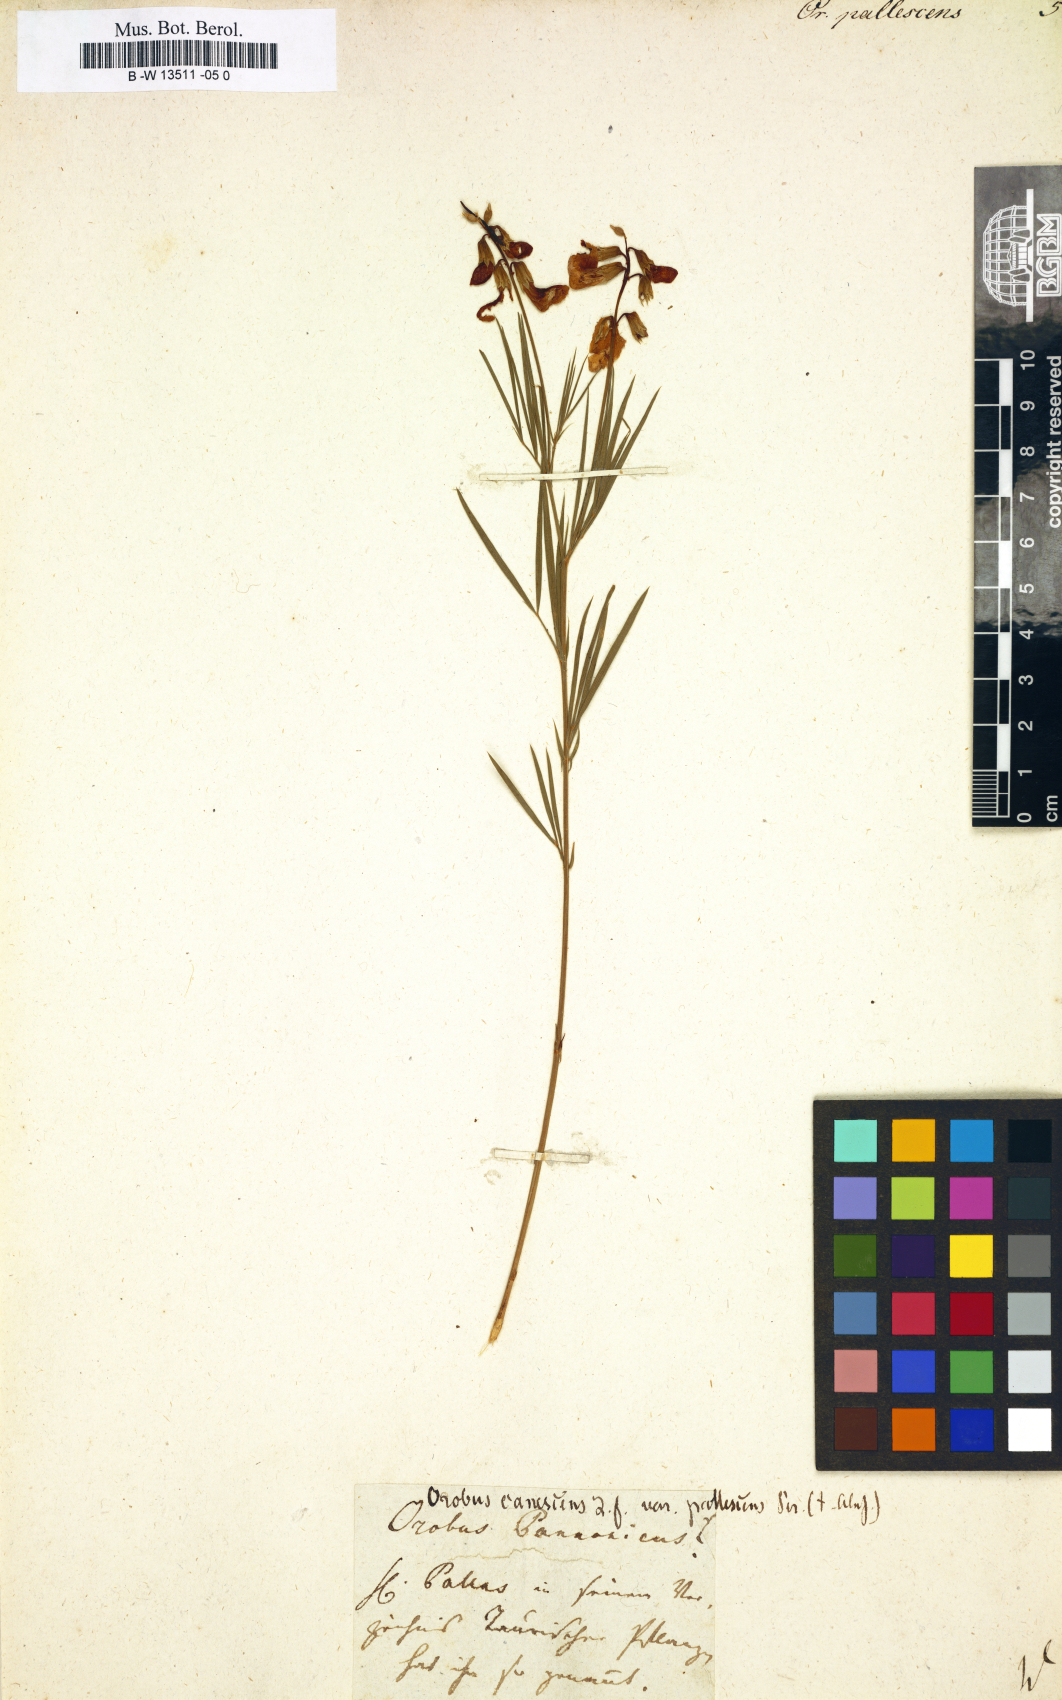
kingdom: Plantae
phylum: Tracheophyta
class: Magnoliopsida
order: Fabales
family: Fabaceae
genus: Lathyrus
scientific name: Lathyrus pallescens
